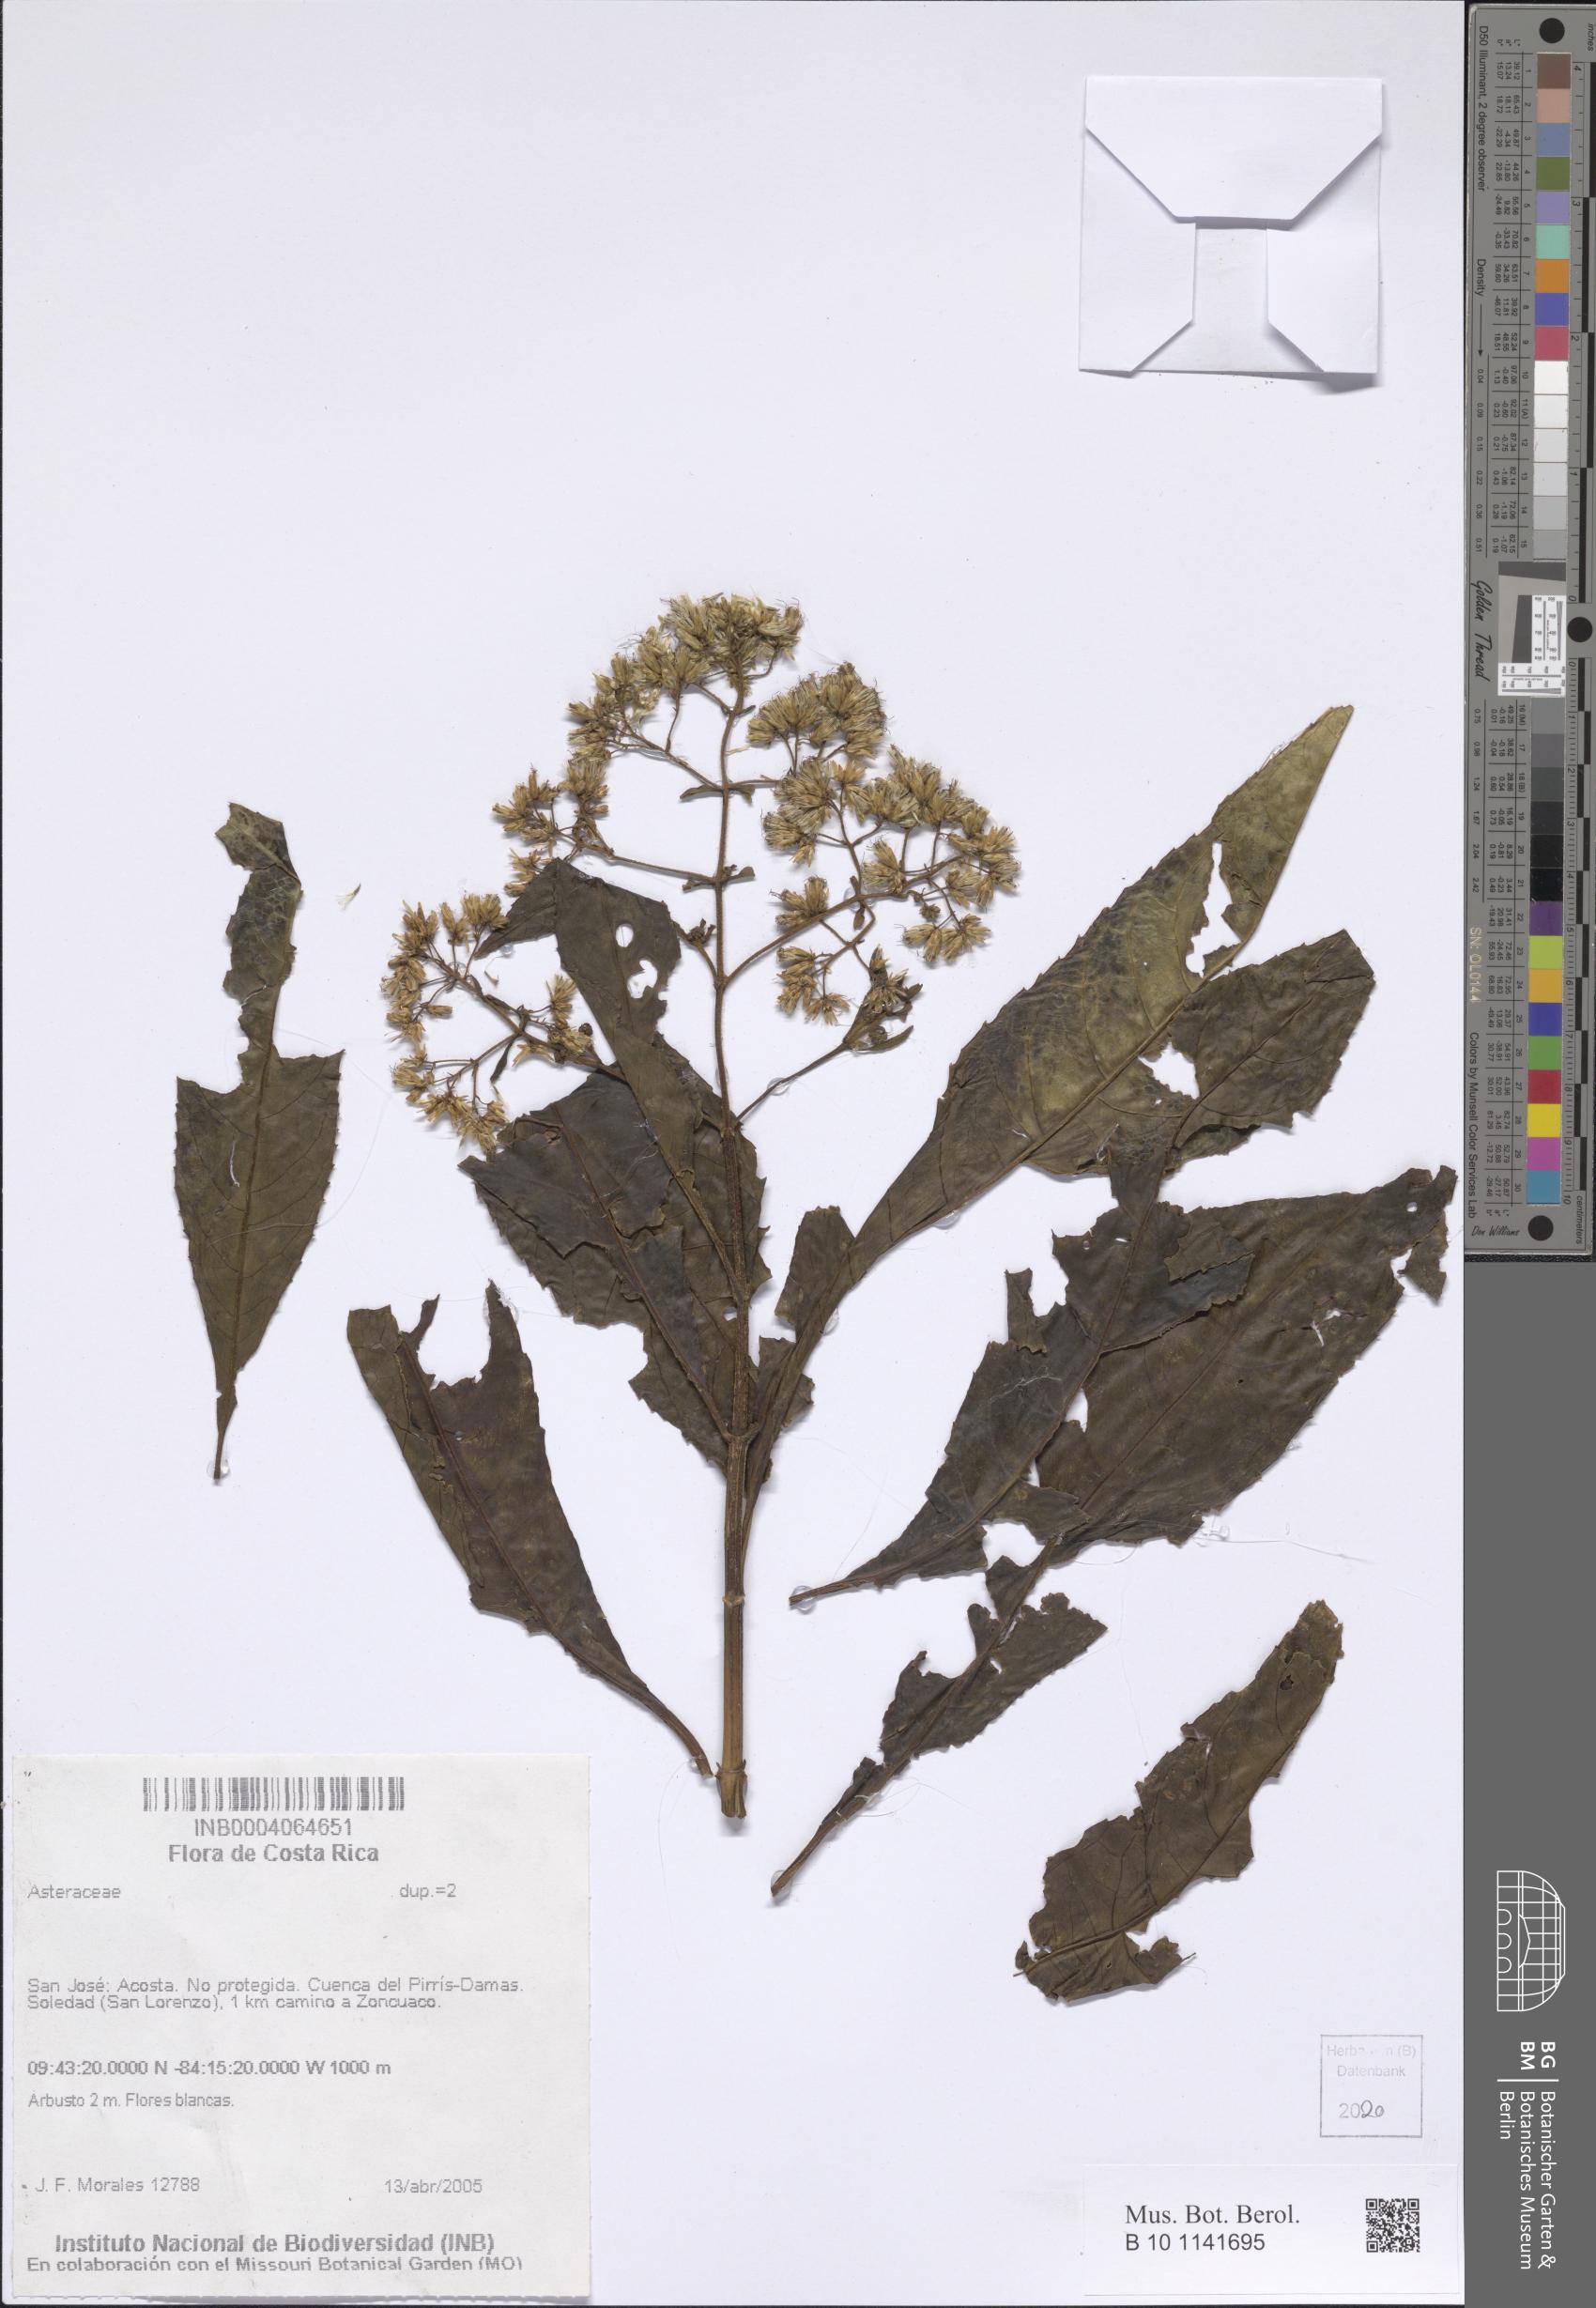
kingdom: Plantae
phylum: Tracheophyta
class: Magnoliopsida
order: Asterales
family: Asteraceae
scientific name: Asteraceae
